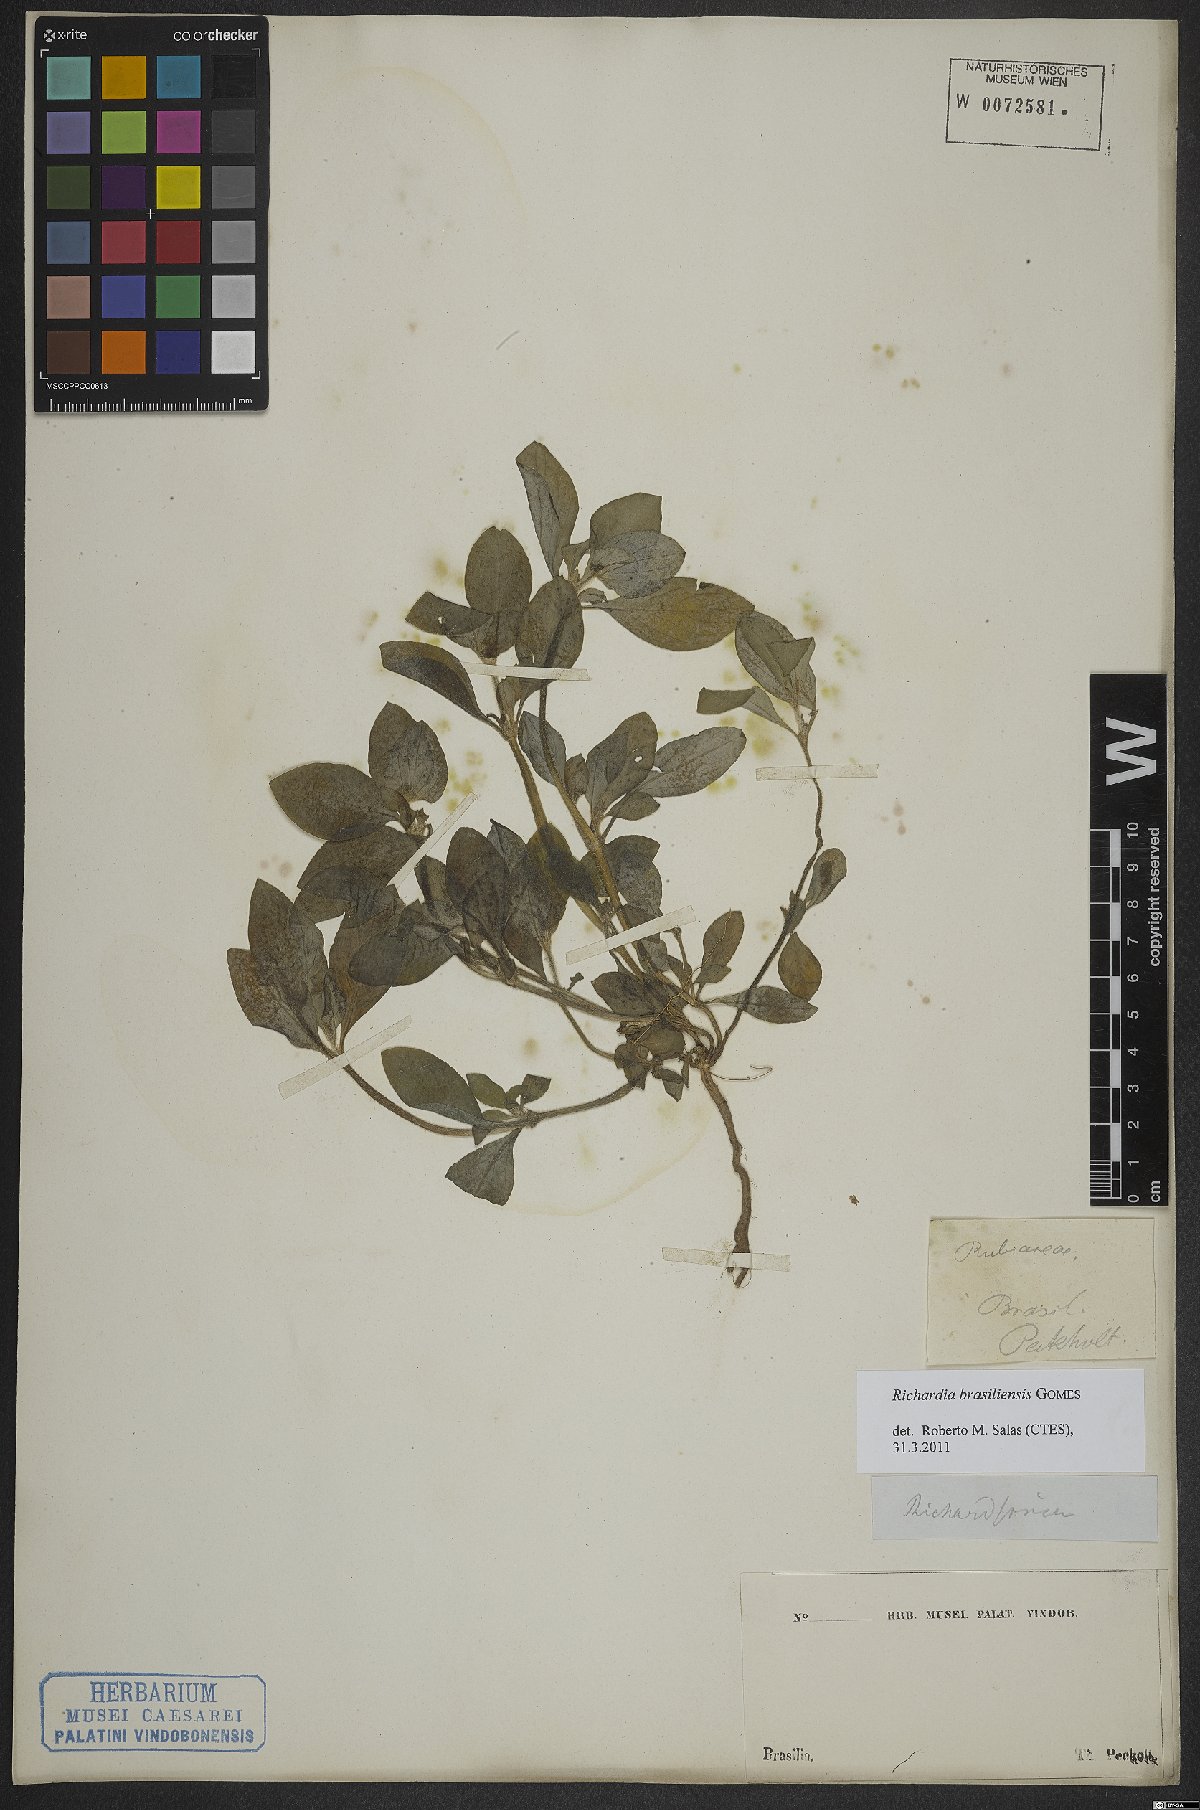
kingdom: Plantae
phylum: Tracheophyta
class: Magnoliopsida
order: Gentianales
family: Rubiaceae
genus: Richardia
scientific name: Richardia brasiliensis
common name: Tropical mexican clover
